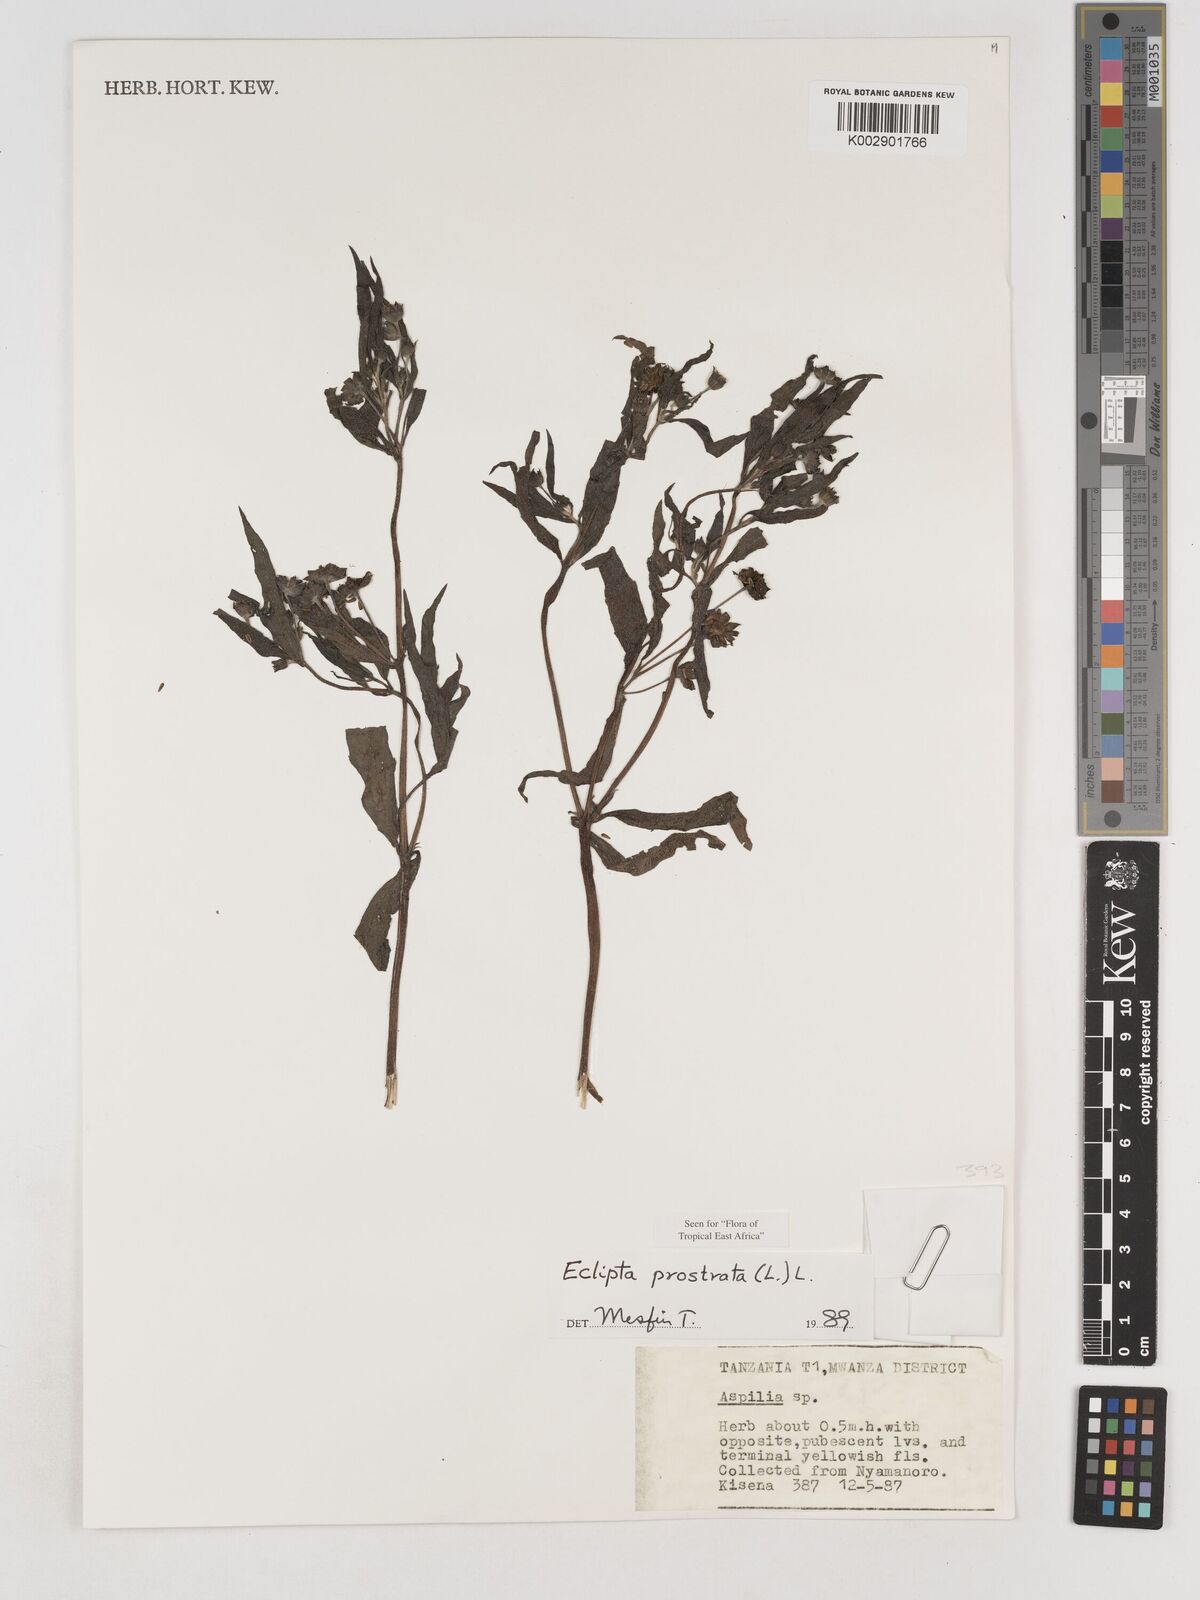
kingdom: Plantae
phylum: Tracheophyta
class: Magnoliopsida
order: Asterales
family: Asteraceae
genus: Eclipta
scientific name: Eclipta alba
